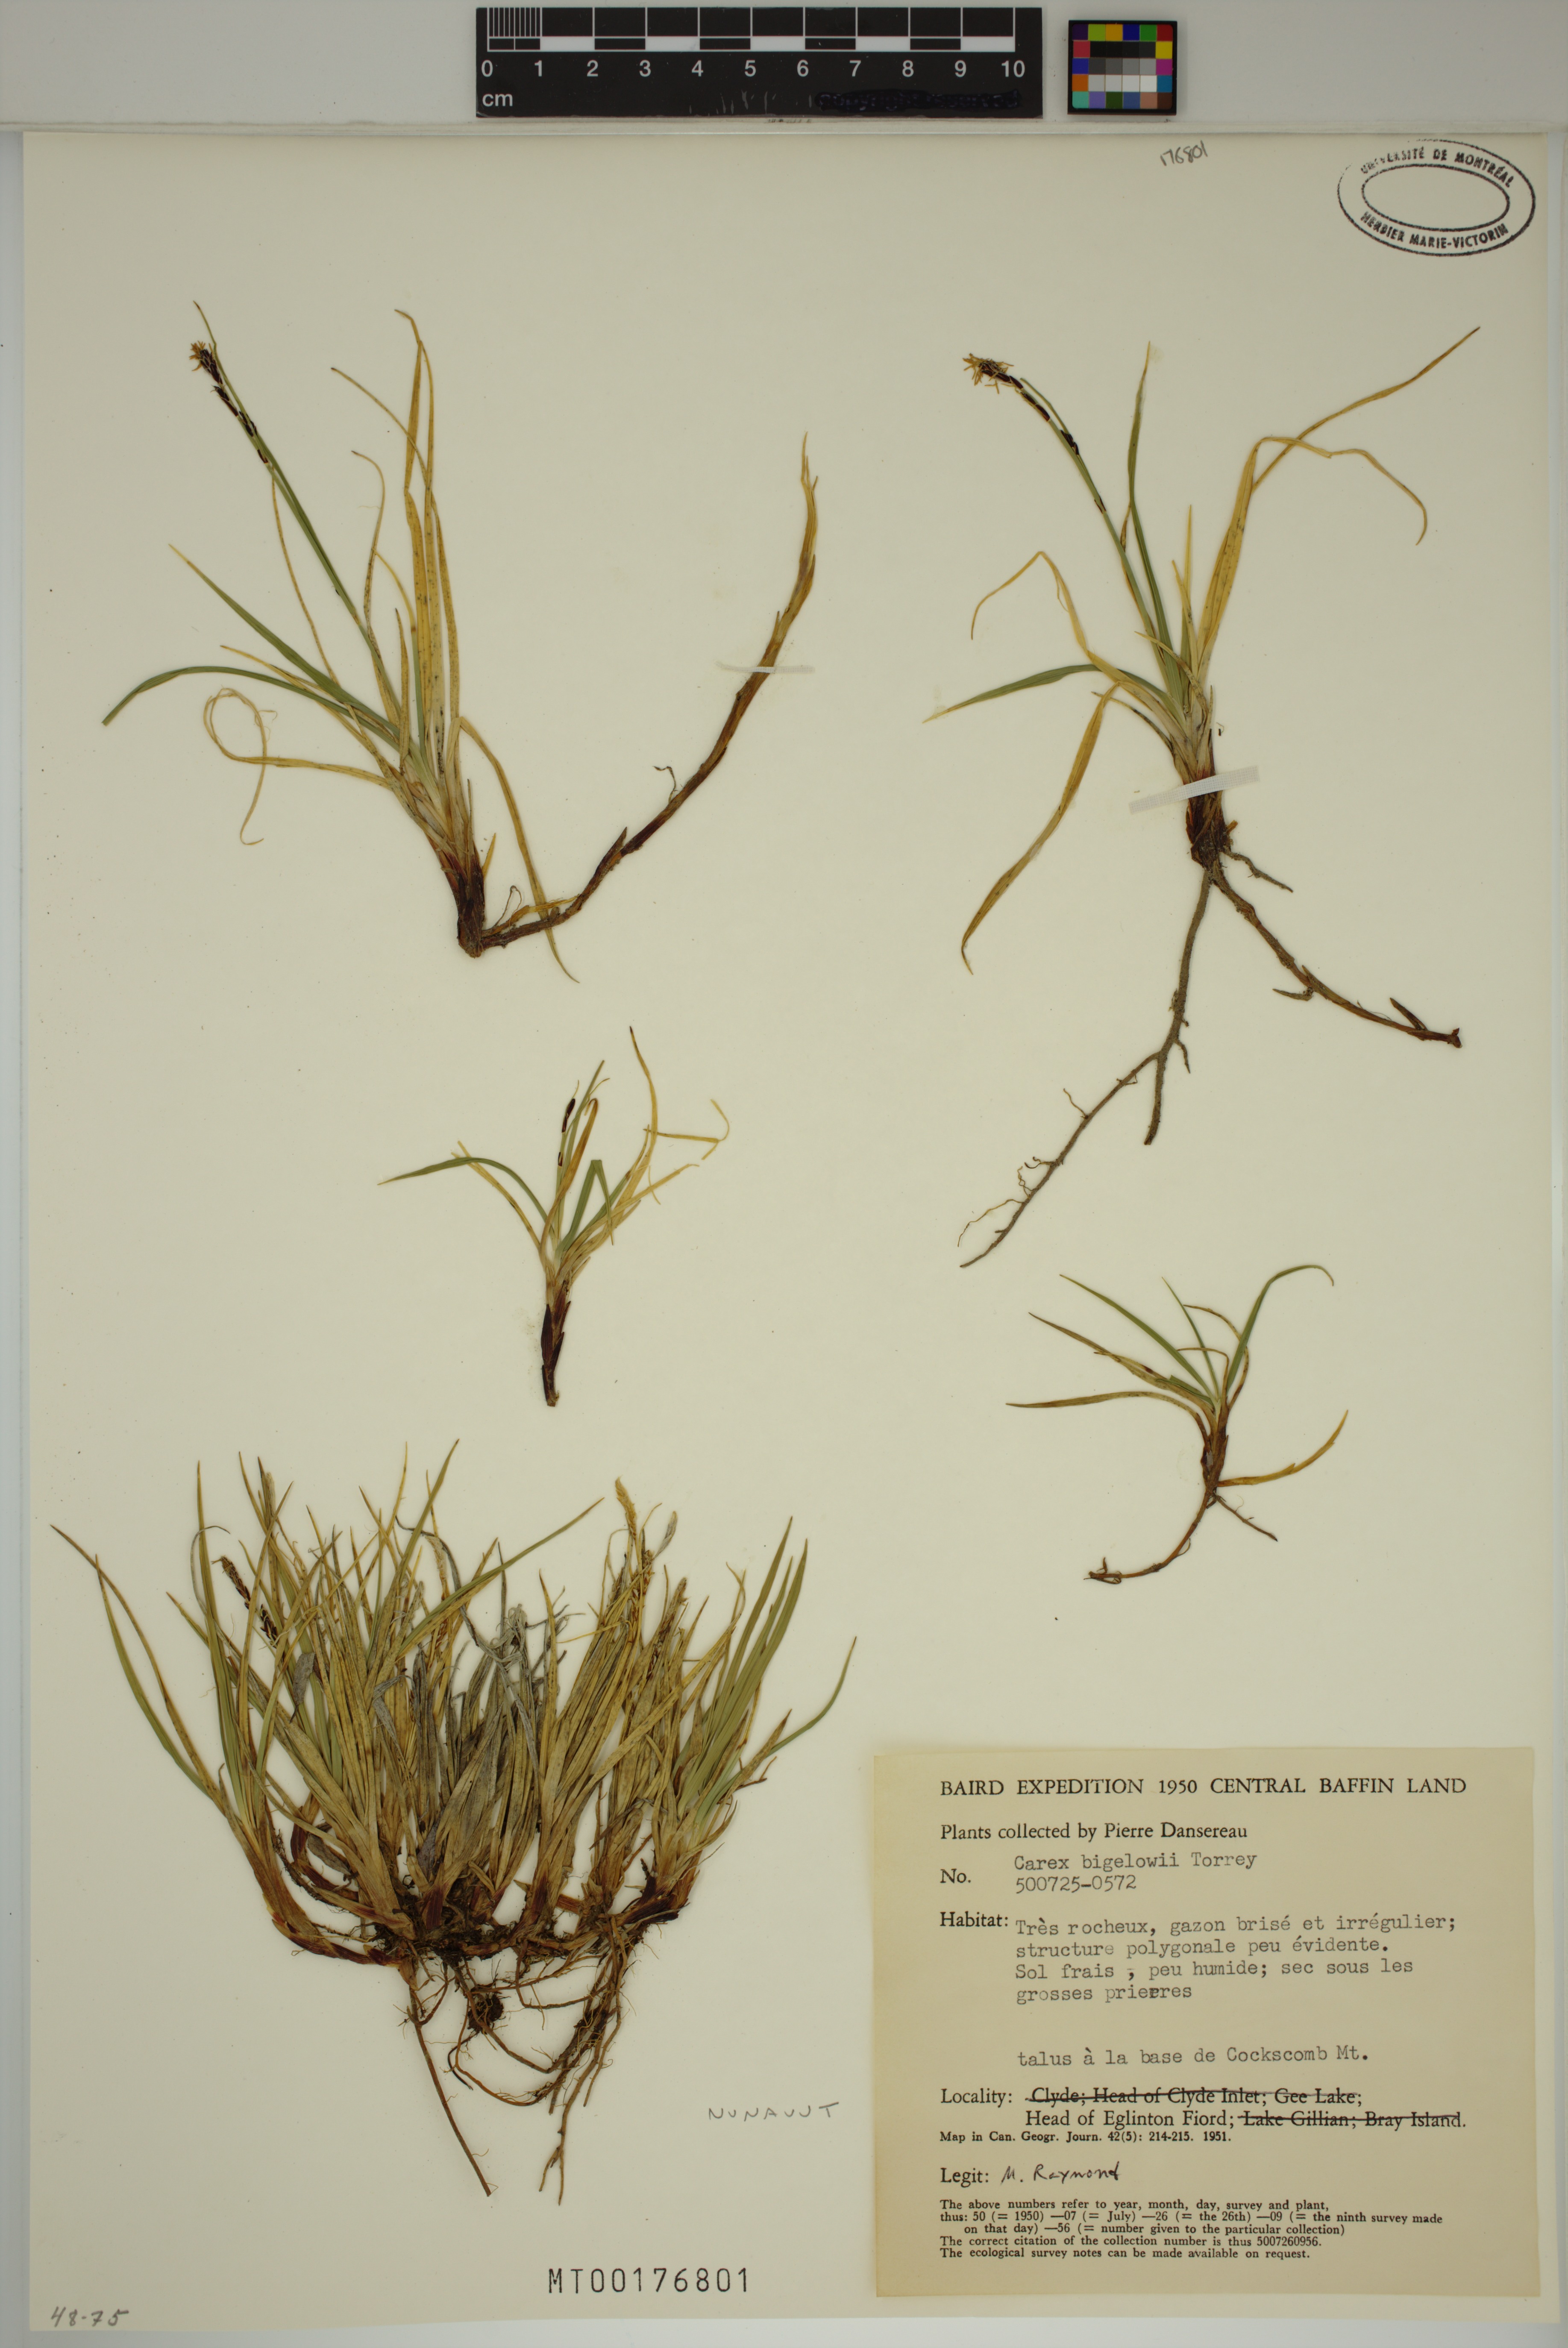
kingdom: Plantae
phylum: Tracheophyta
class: Liliopsida
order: Poales
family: Cyperaceae
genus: Carex
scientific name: Carex bigelowii
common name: Stiff sedge
